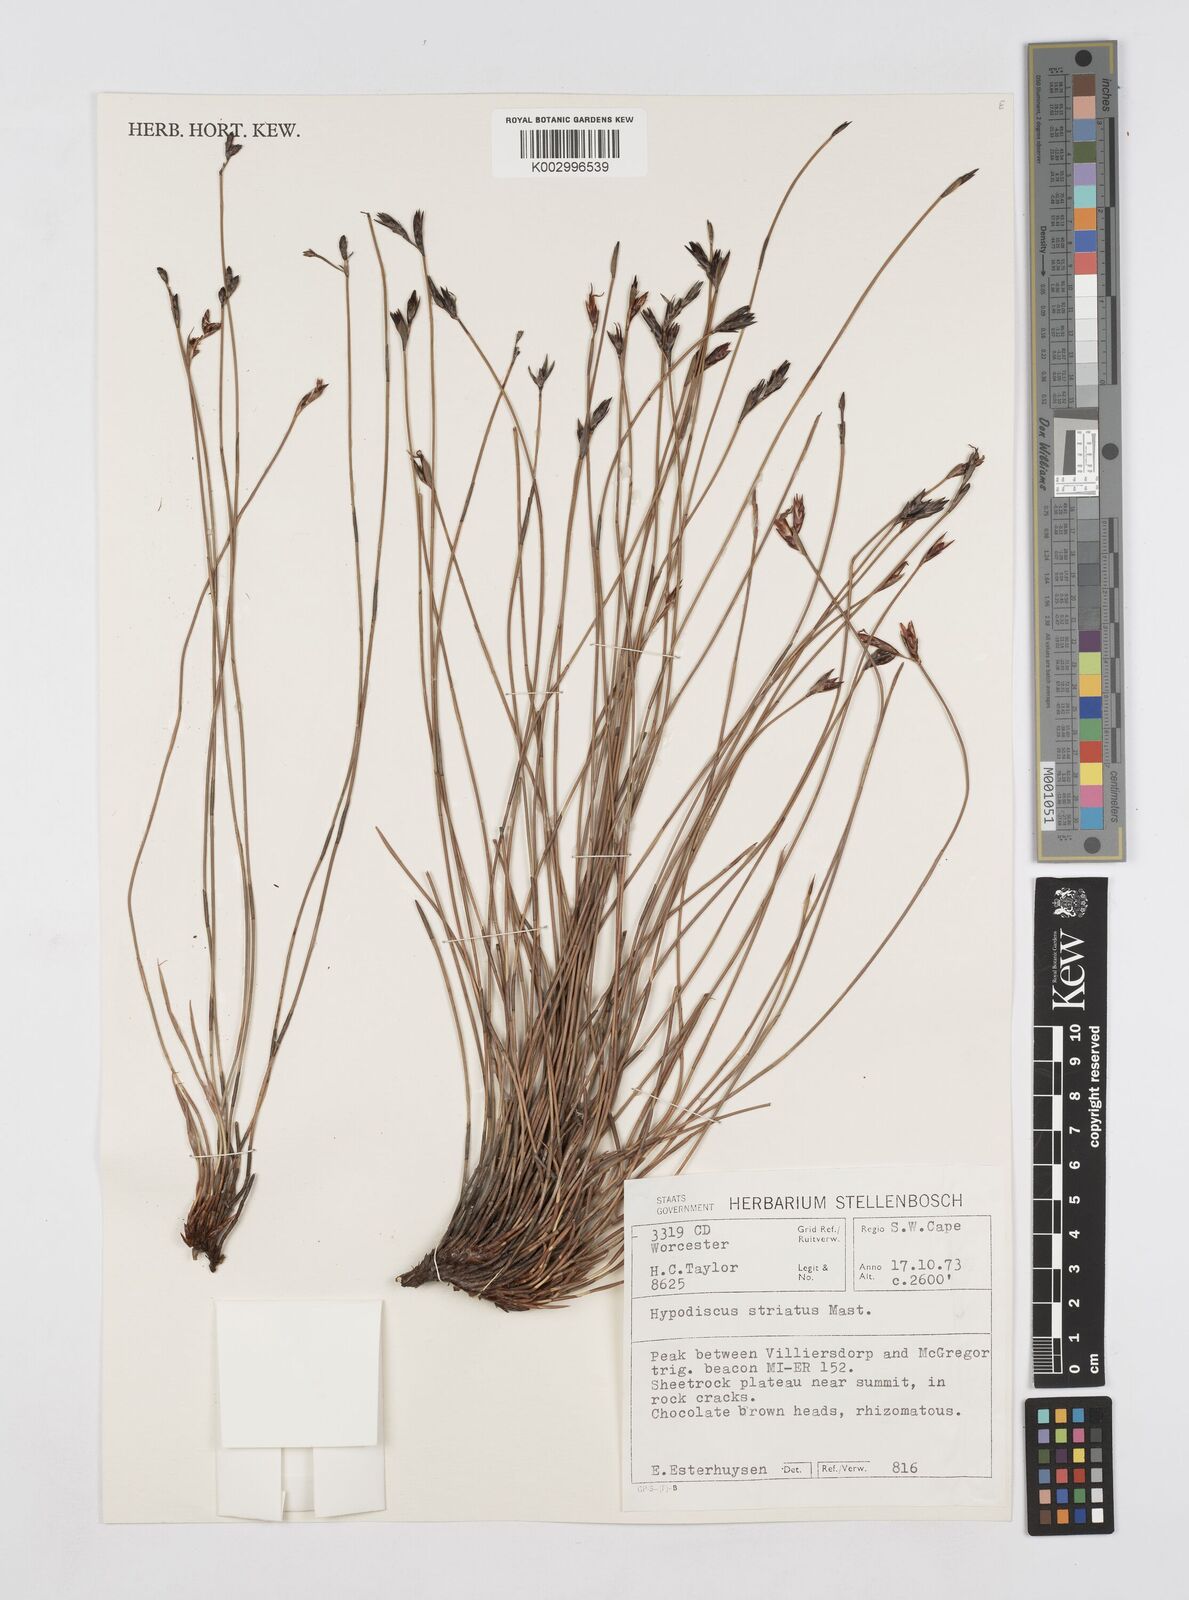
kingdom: Plantae
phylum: Tracheophyta
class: Liliopsida
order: Poales
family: Restionaceae
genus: Hypodiscus
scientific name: Hypodiscus striatus
